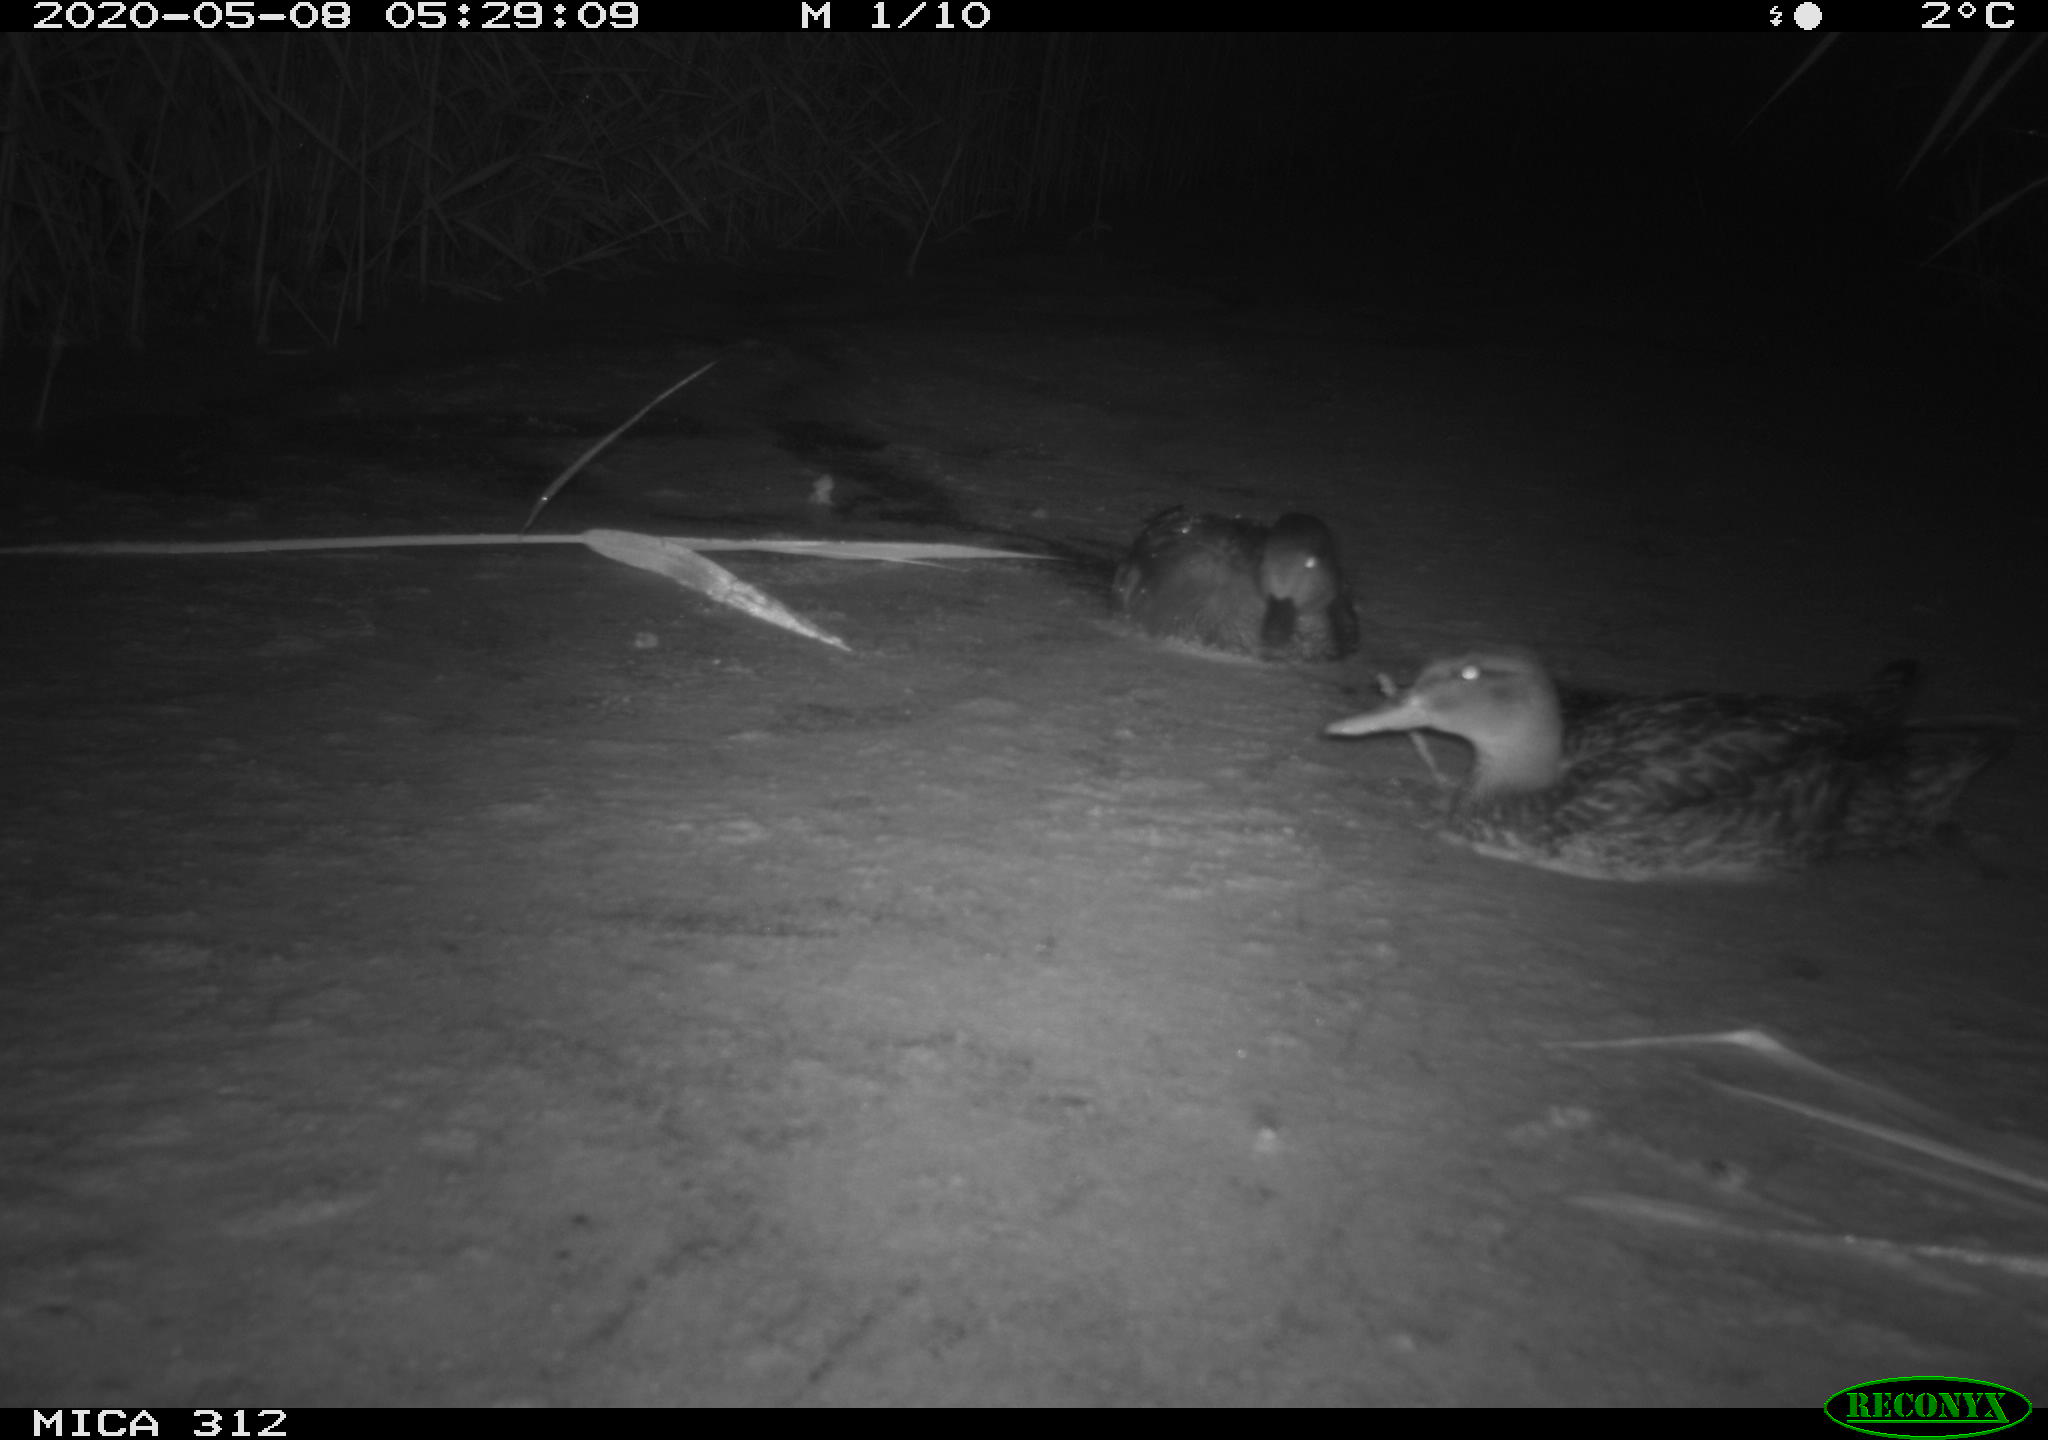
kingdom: Animalia
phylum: Chordata
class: Aves
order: Anseriformes
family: Anatidae
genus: Anas
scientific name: Anas platyrhynchos
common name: Mallard
